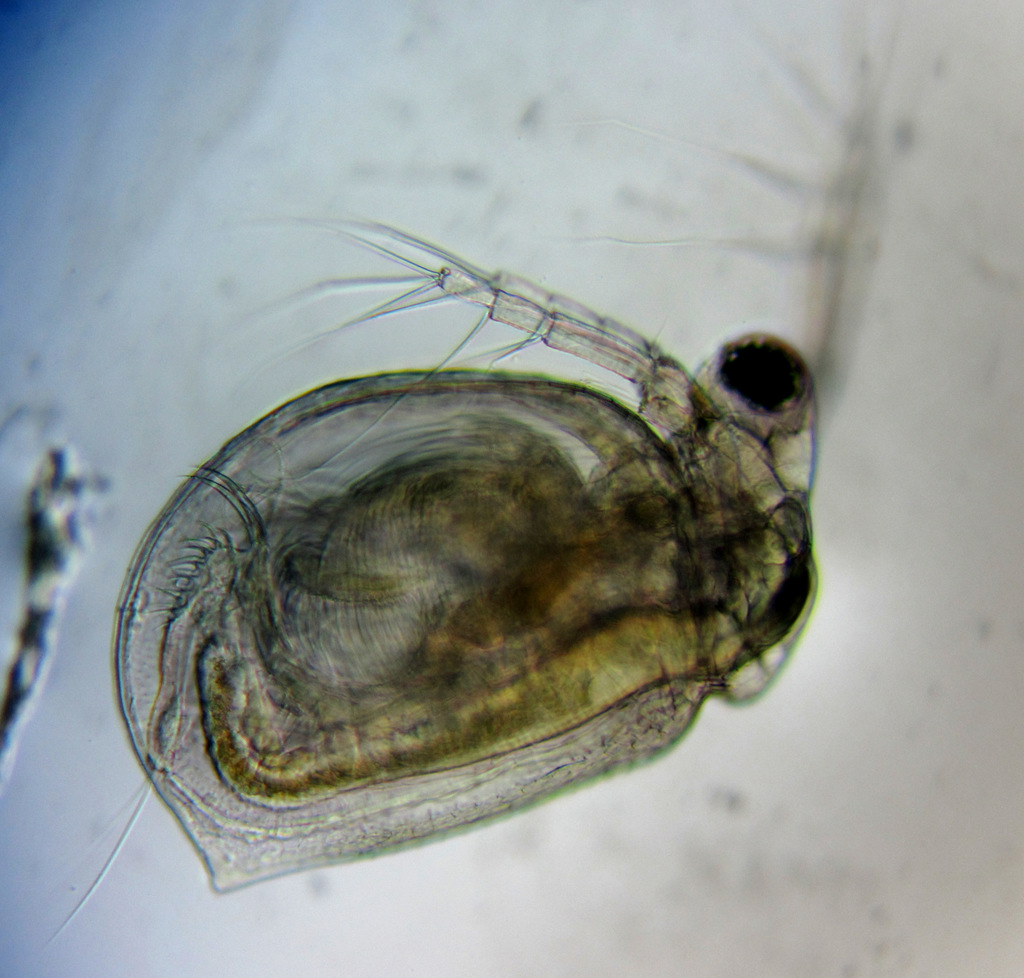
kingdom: Animalia
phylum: Arthropoda
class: Branchiopoda
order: Diplostraca
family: Daphniidae
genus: Ceriodaphnia
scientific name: Ceriodaphnia quadrangula
